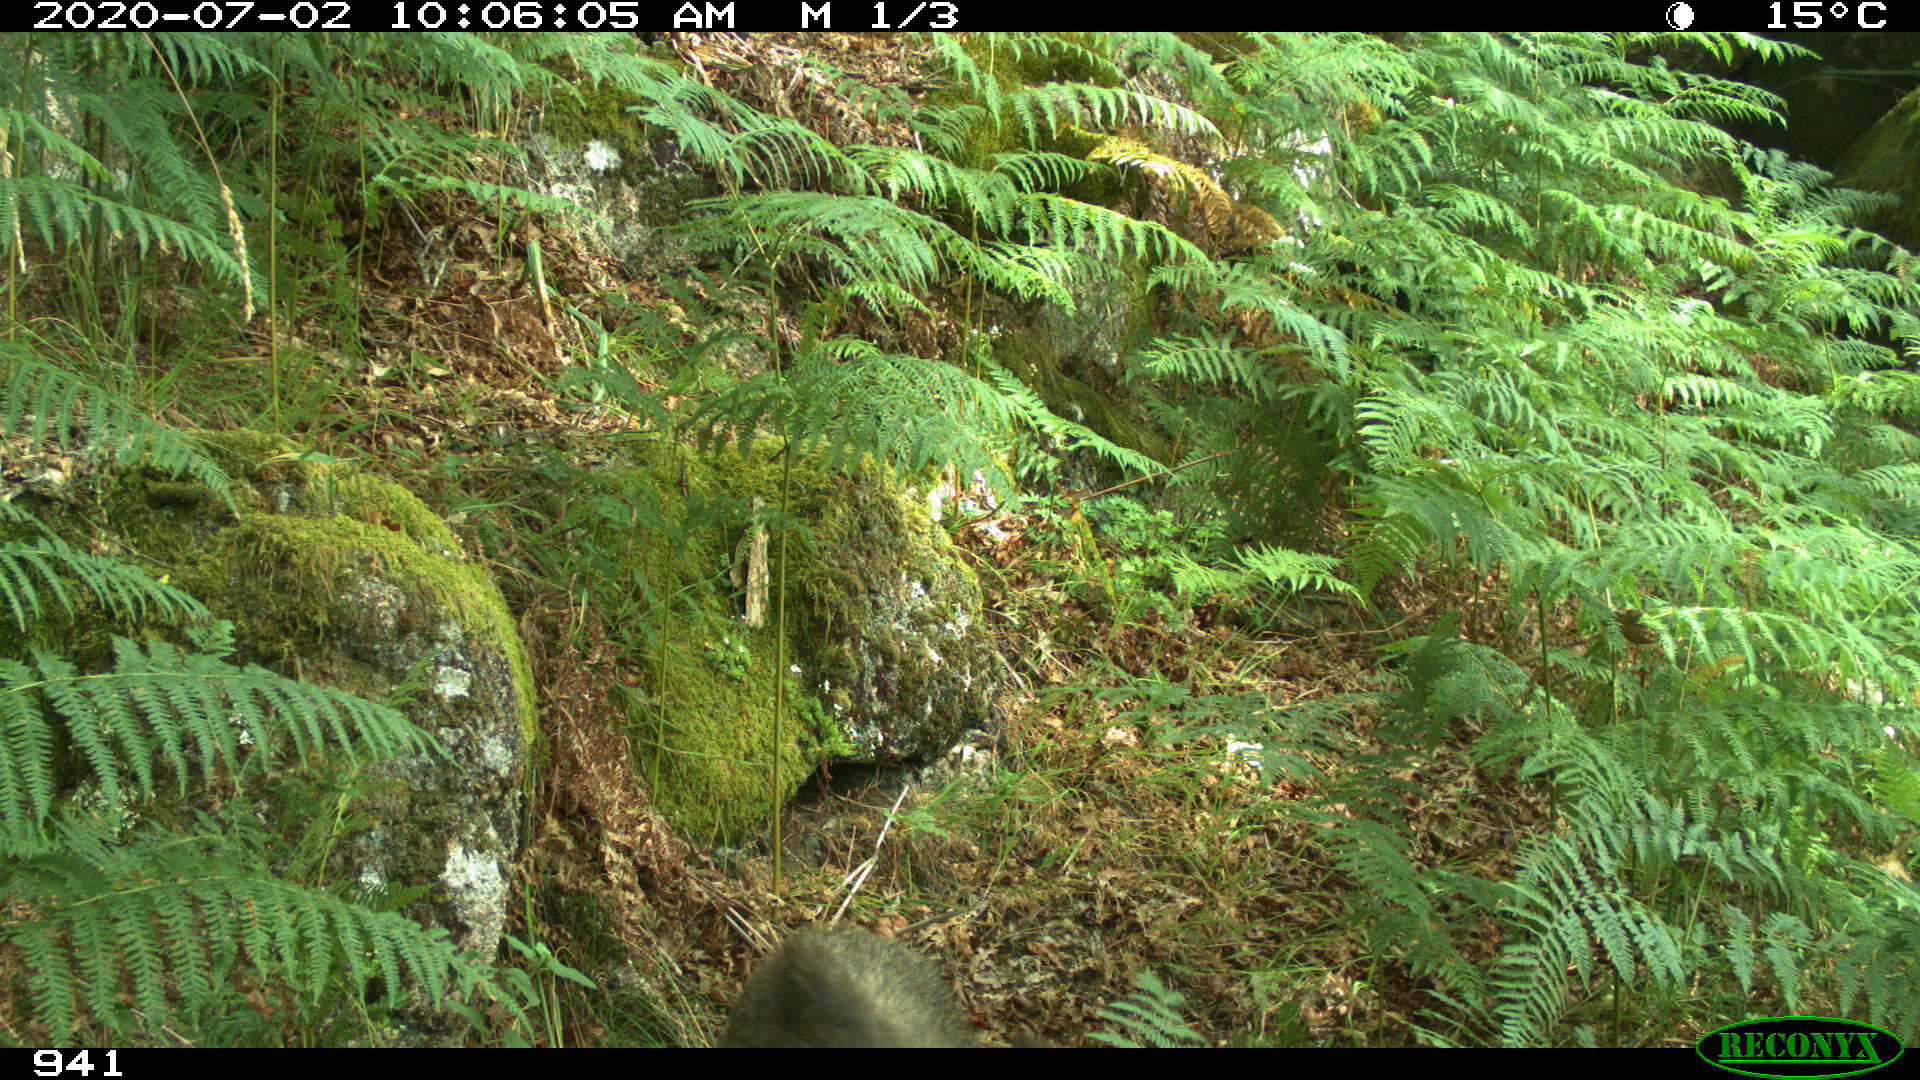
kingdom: Animalia
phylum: Chordata
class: Mammalia
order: Artiodactyla
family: Suidae
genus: Sus
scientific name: Sus scrofa
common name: Wild boar
